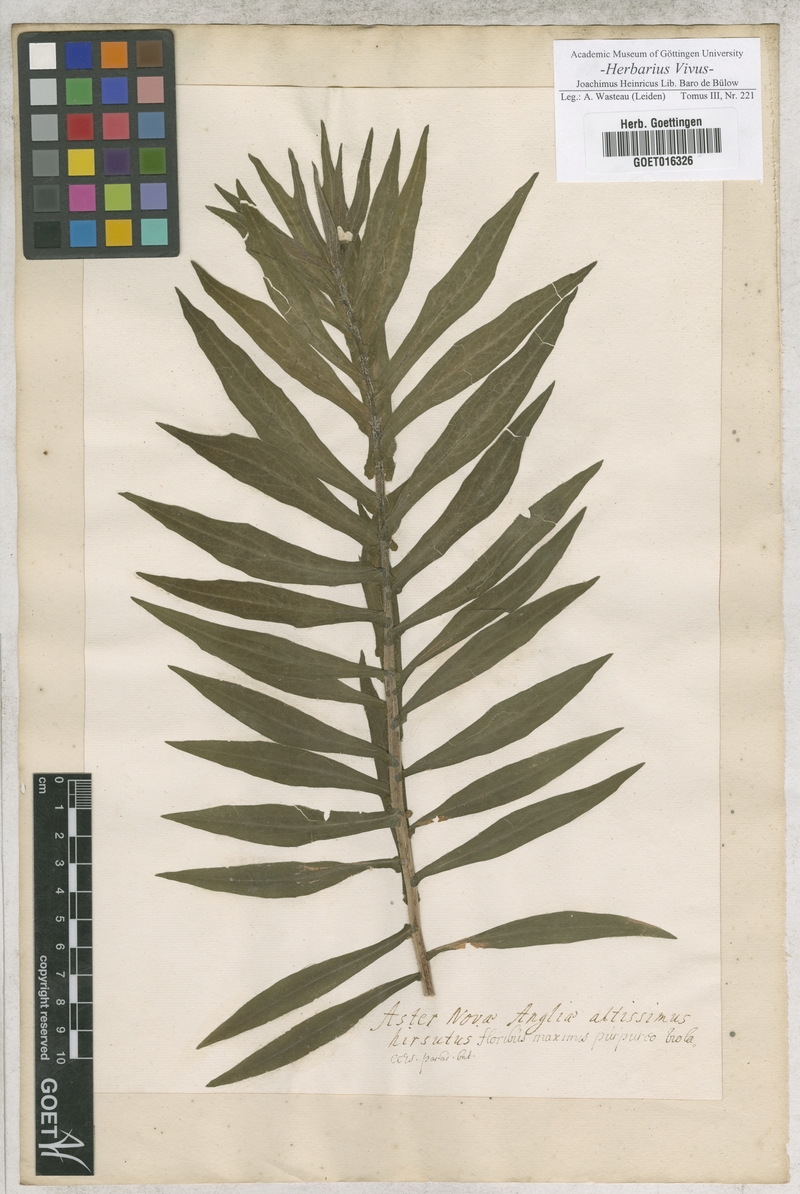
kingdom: Plantae
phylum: Tracheophyta
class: Magnoliopsida
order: Asterales
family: Asteraceae
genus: Symphyotrichum
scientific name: Symphyotrichum novae-angliae
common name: Michaelmas daisy
